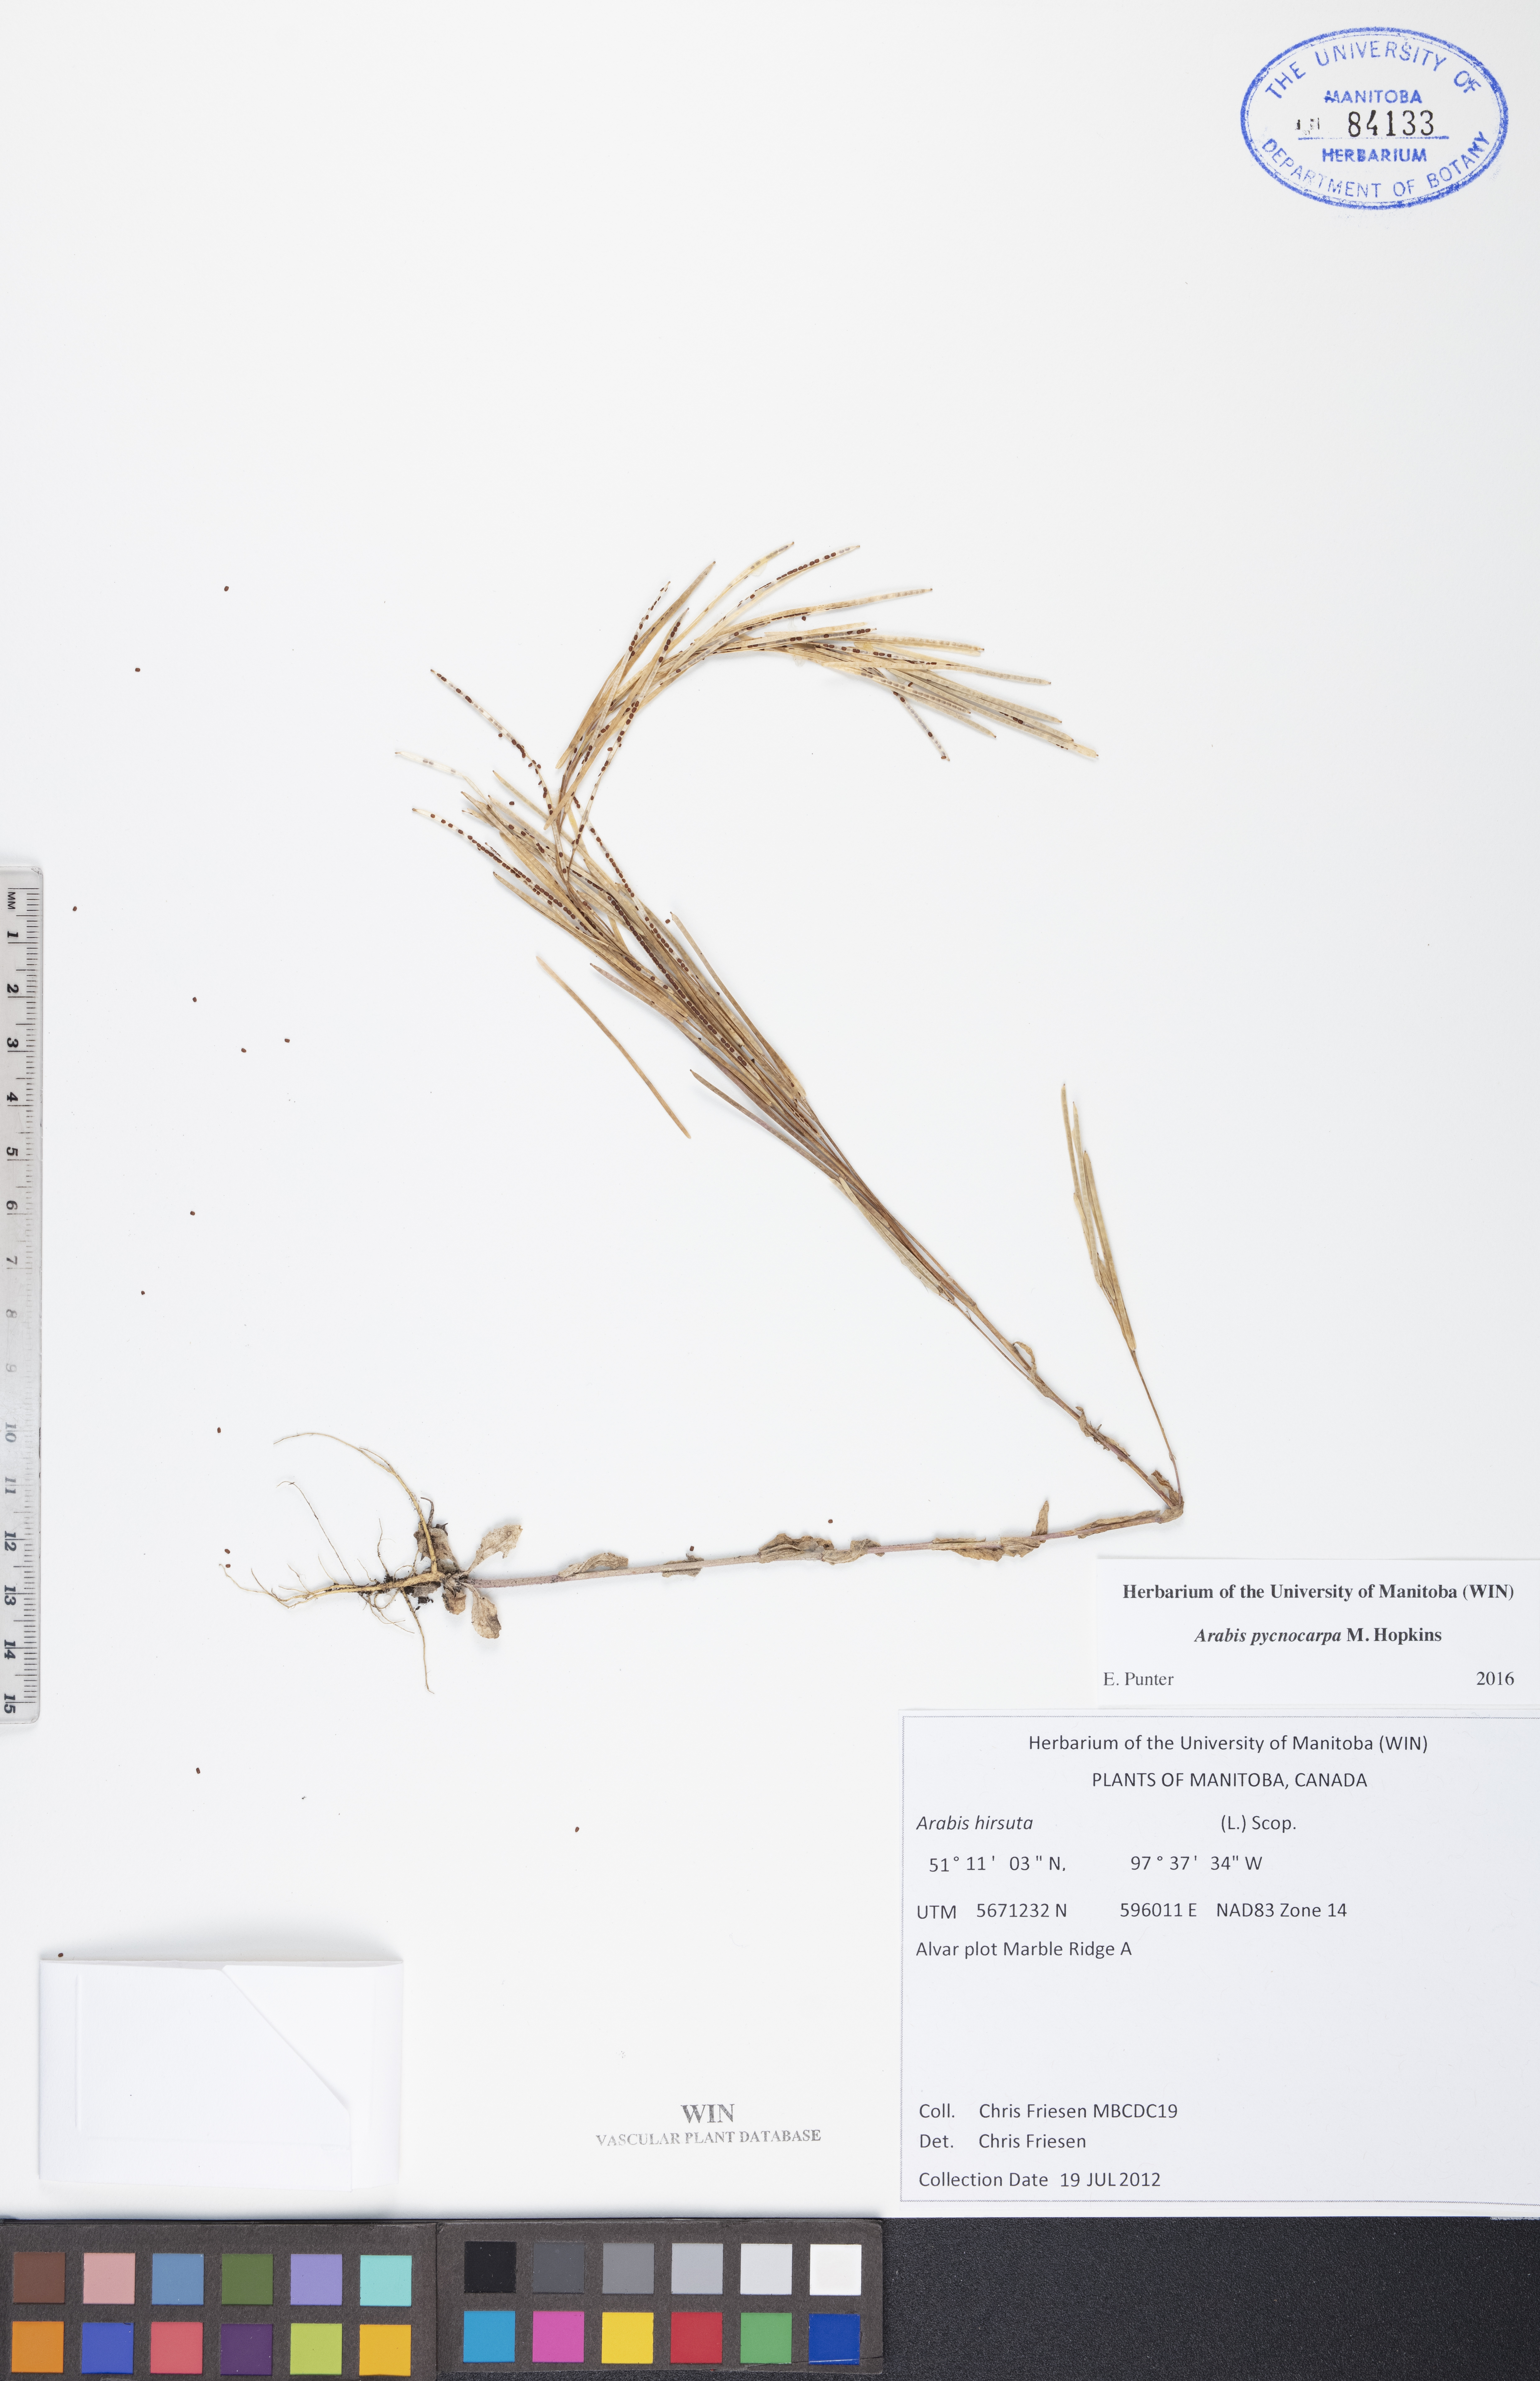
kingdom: Plantae
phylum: Tracheophyta
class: Magnoliopsida
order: Brassicales
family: Brassicaceae
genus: Arabis
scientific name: Arabis pycnocarpa
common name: Blushing rockcress
